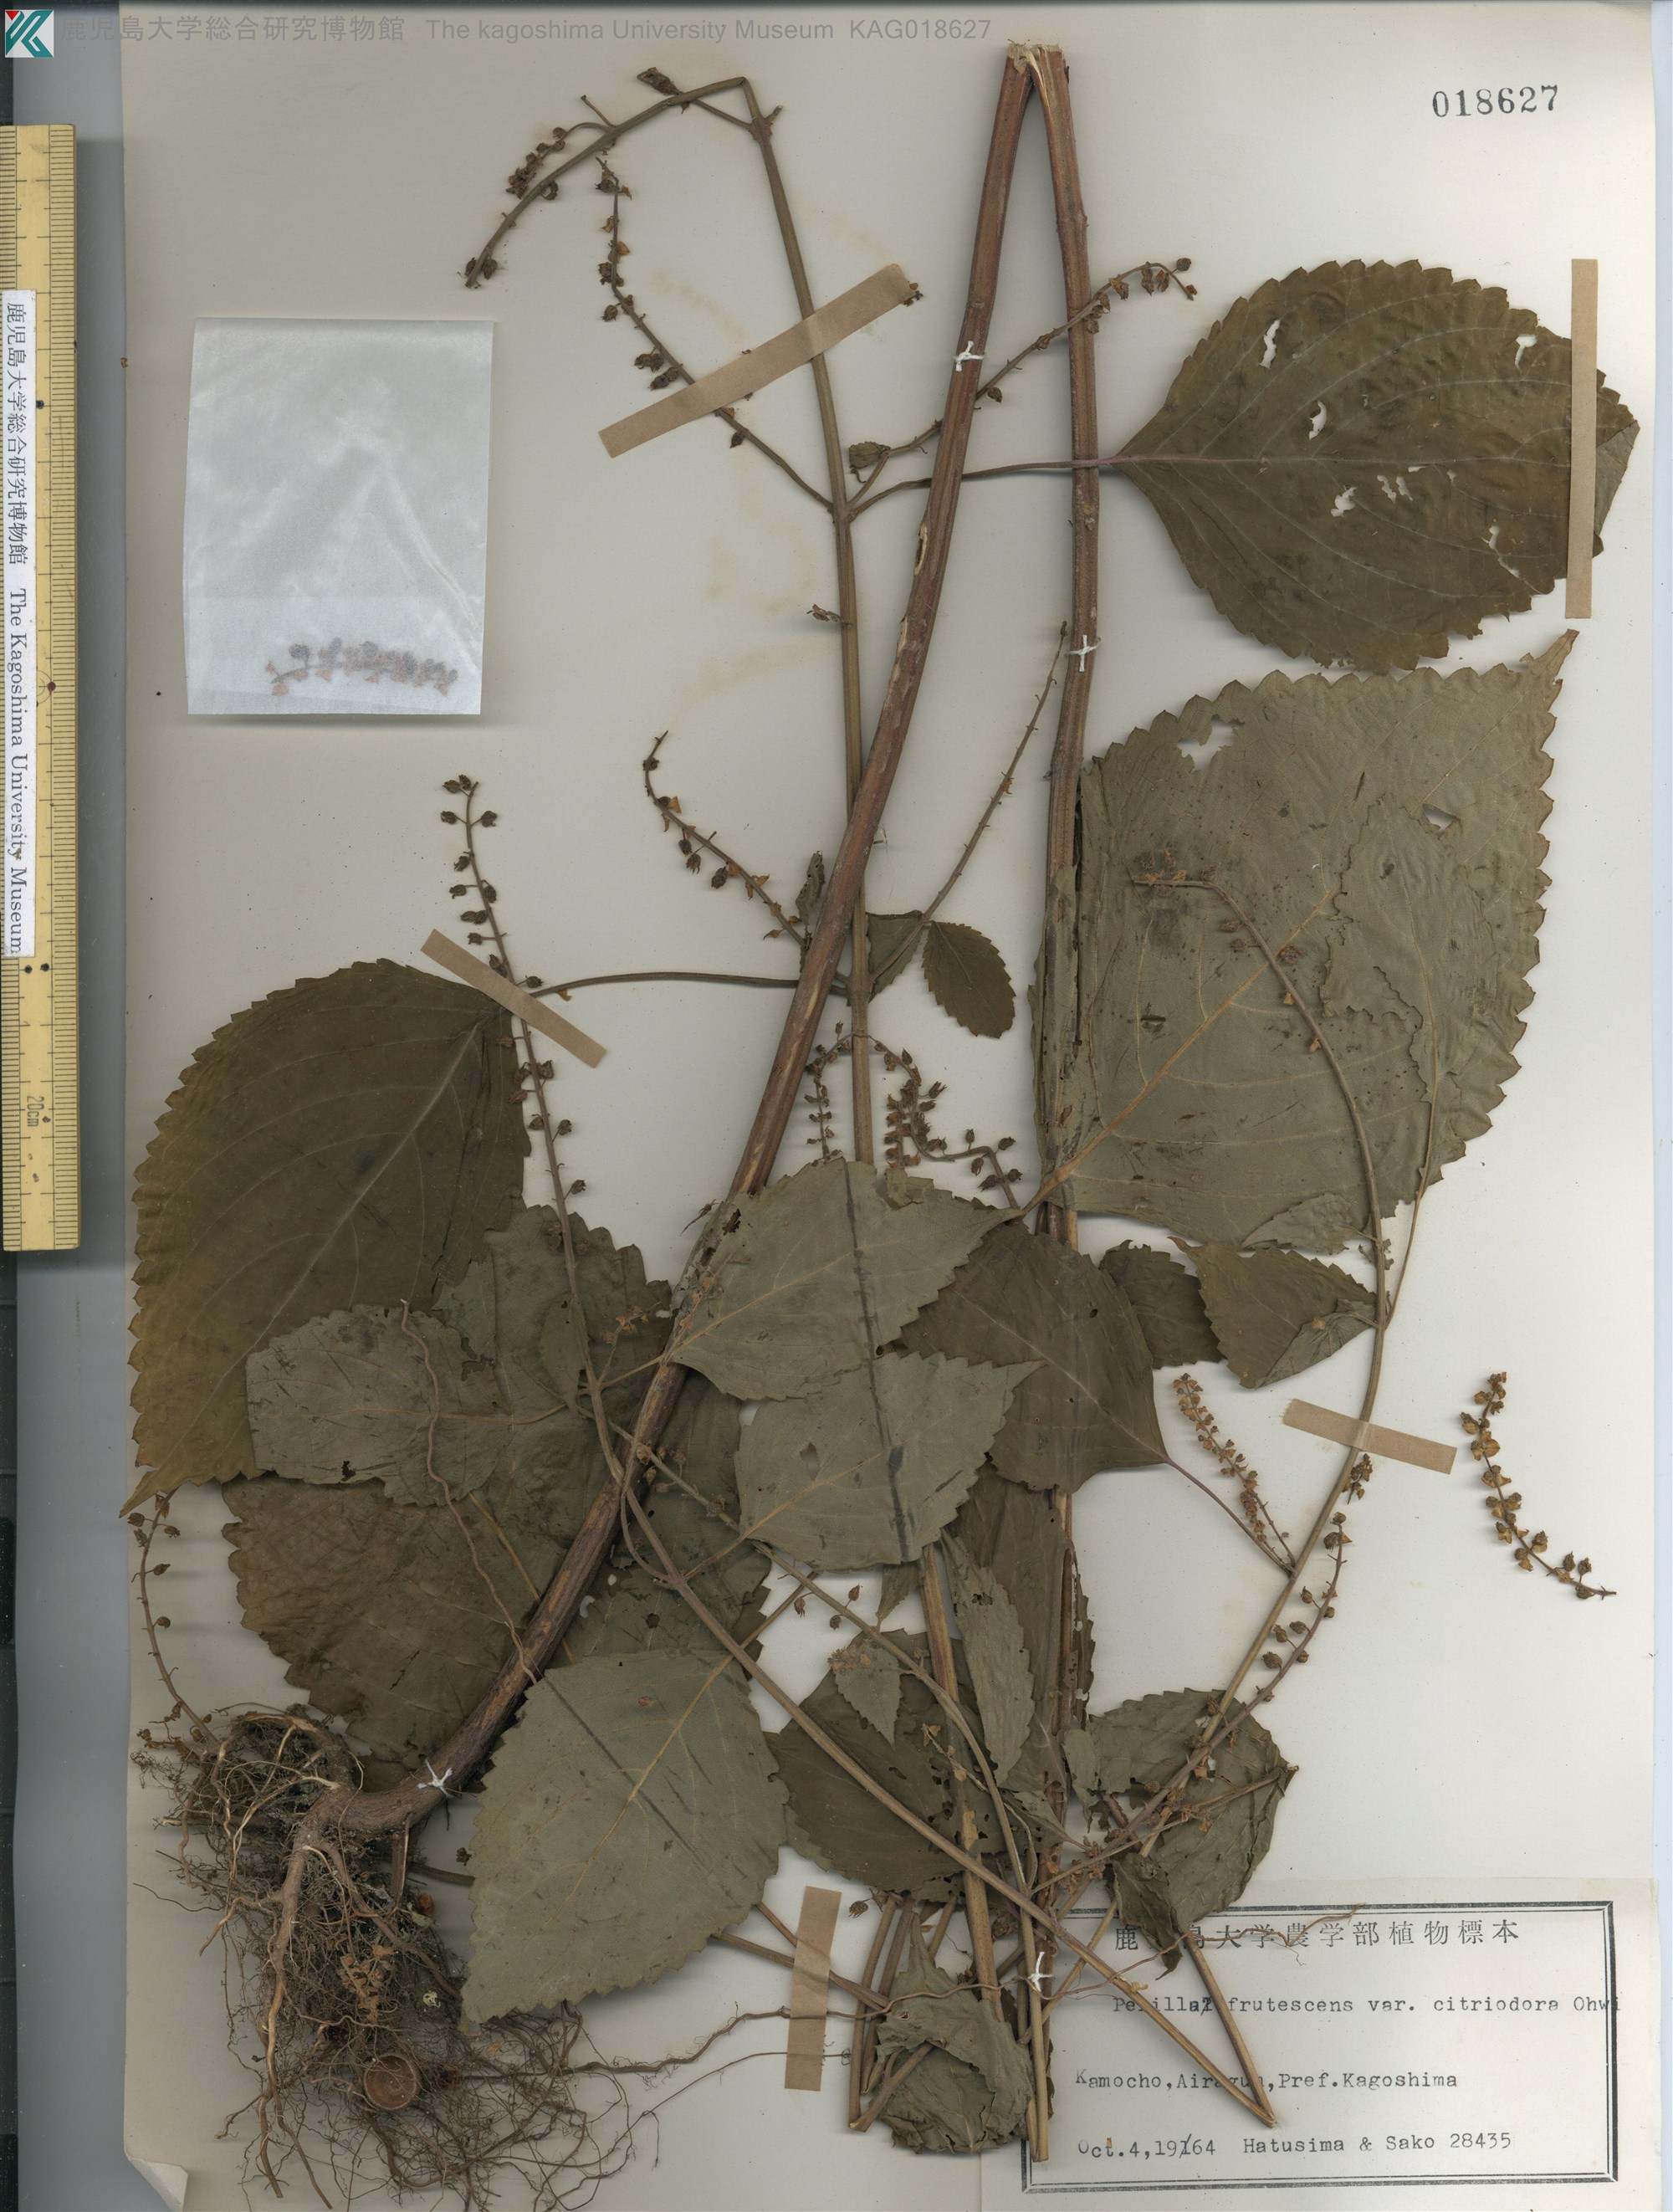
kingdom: Plantae
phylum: Tracheophyta
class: Magnoliopsida
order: Lamiales
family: Lamiaceae
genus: Perilla
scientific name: Perilla frutescens
